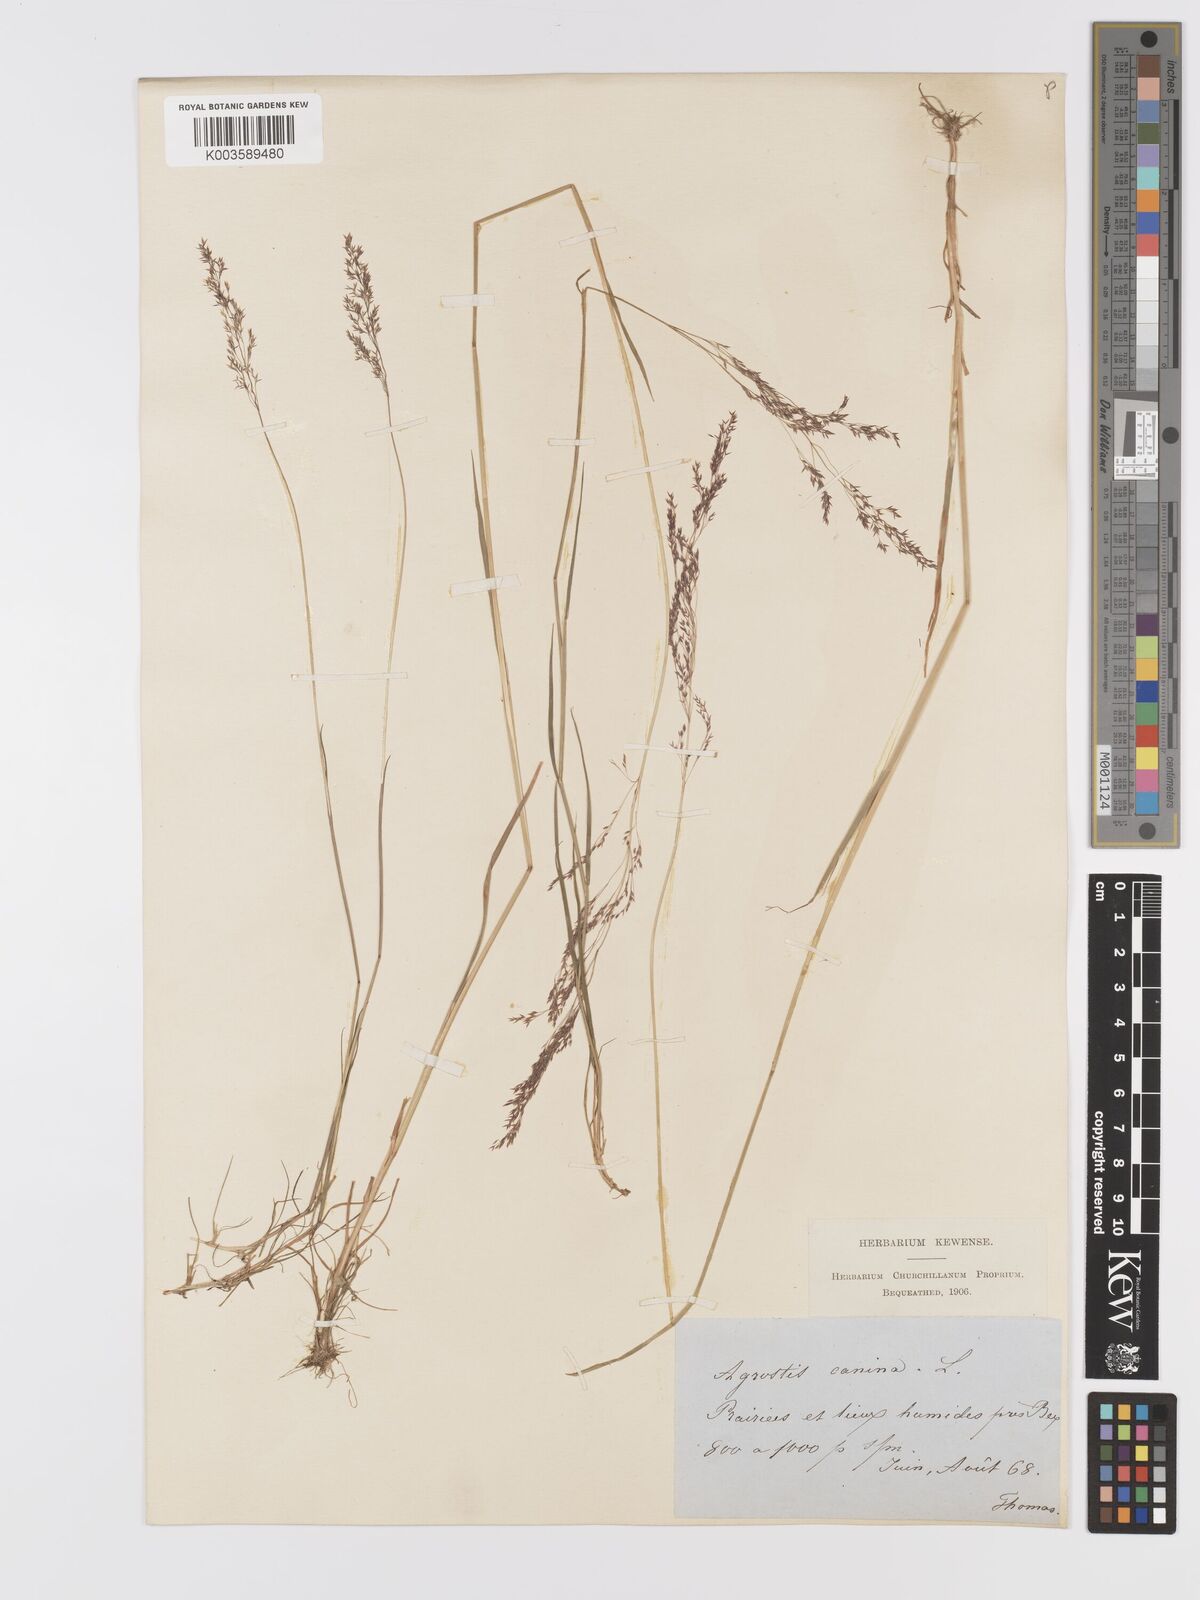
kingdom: Plantae
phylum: Tracheophyta
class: Liliopsida
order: Poales
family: Poaceae
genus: Agrostis
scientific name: Agrostis canina
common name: Velvet bent
